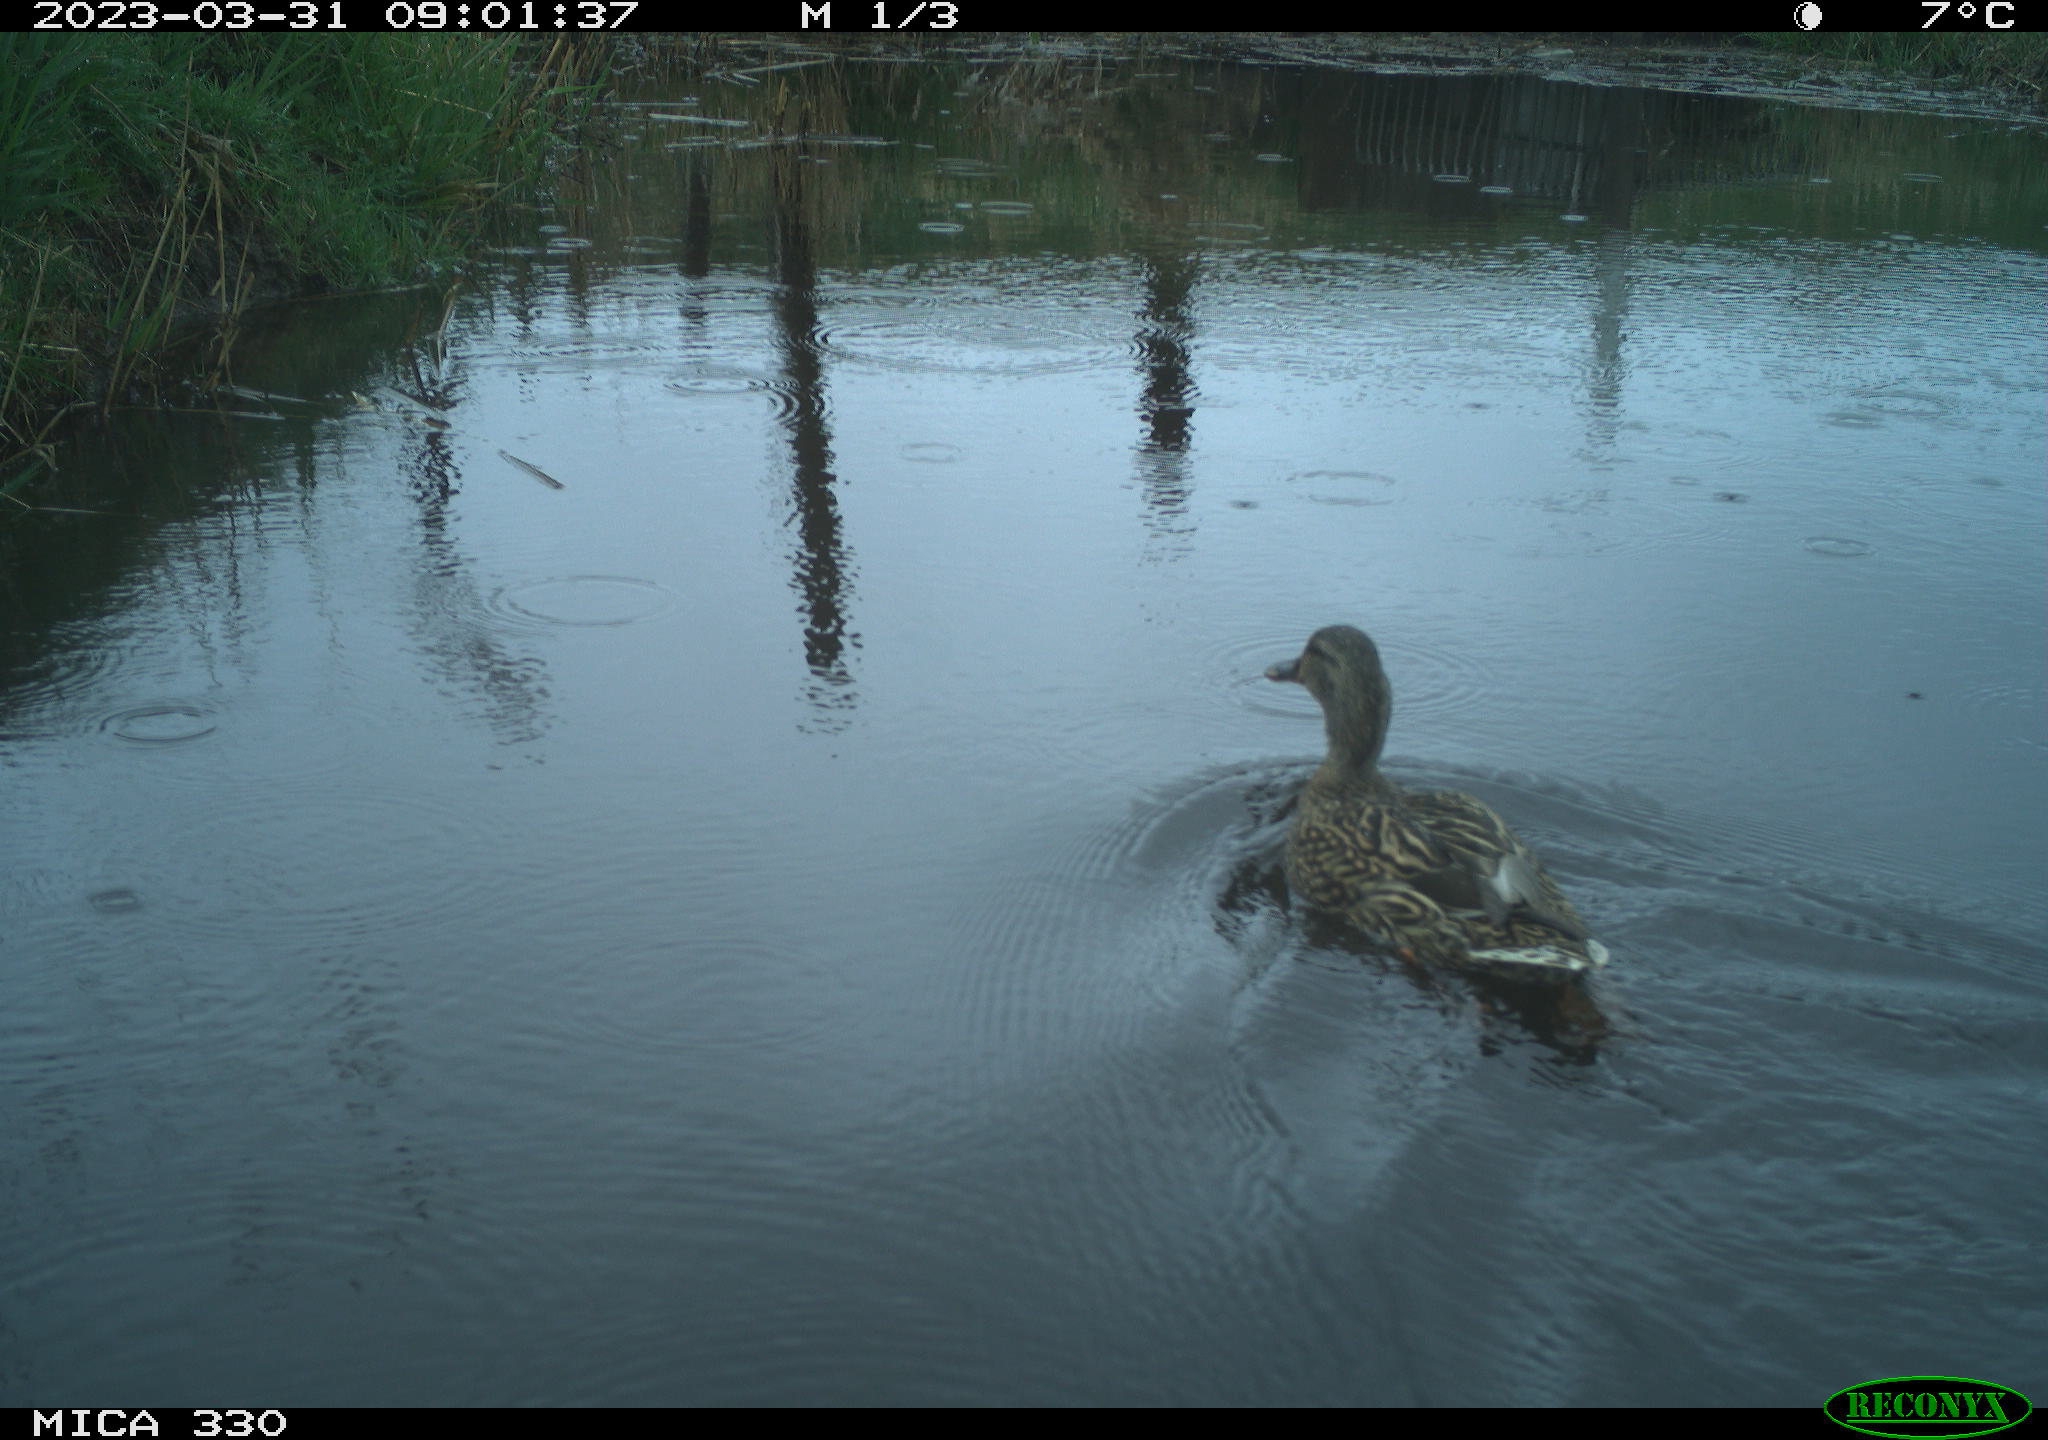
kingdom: Animalia
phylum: Chordata
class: Aves
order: Anseriformes
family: Anatidae
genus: Anas
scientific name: Anas
